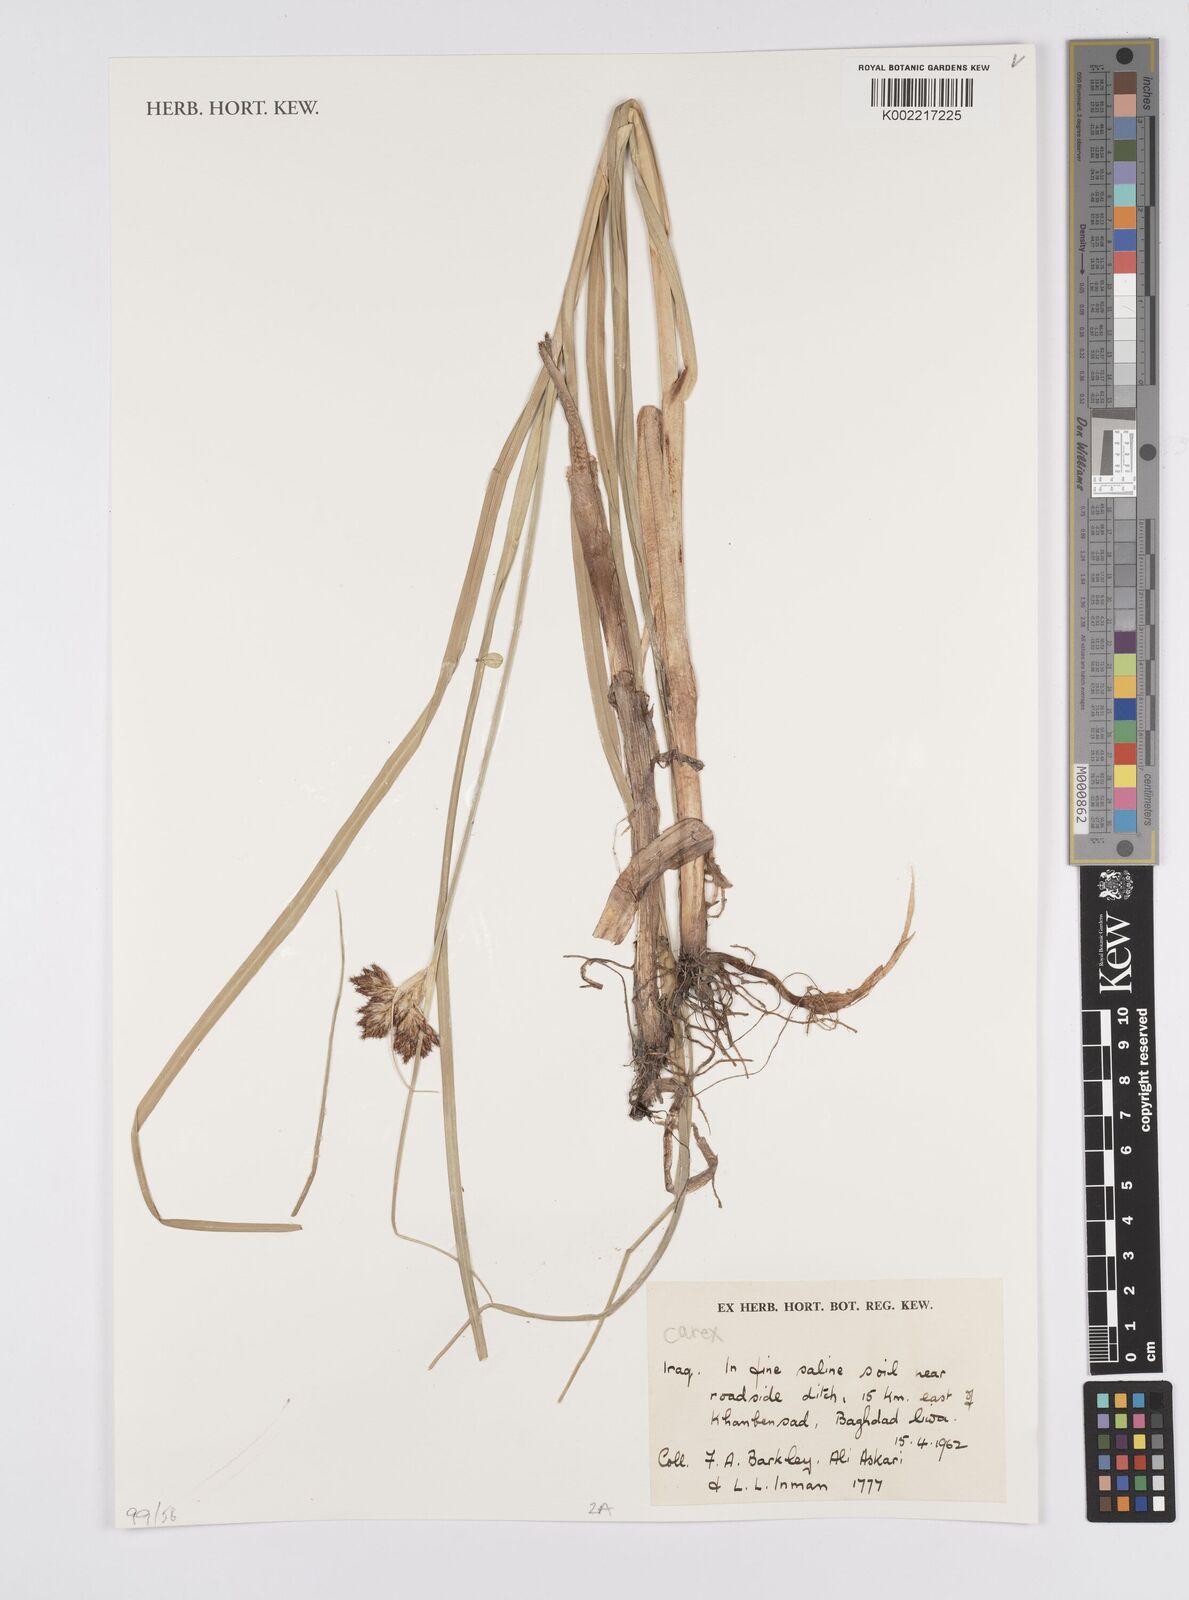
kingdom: Plantae
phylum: Tracheophyta
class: Liliopsida
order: Poales
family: Cyperaceae
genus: Carex
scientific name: Carex
